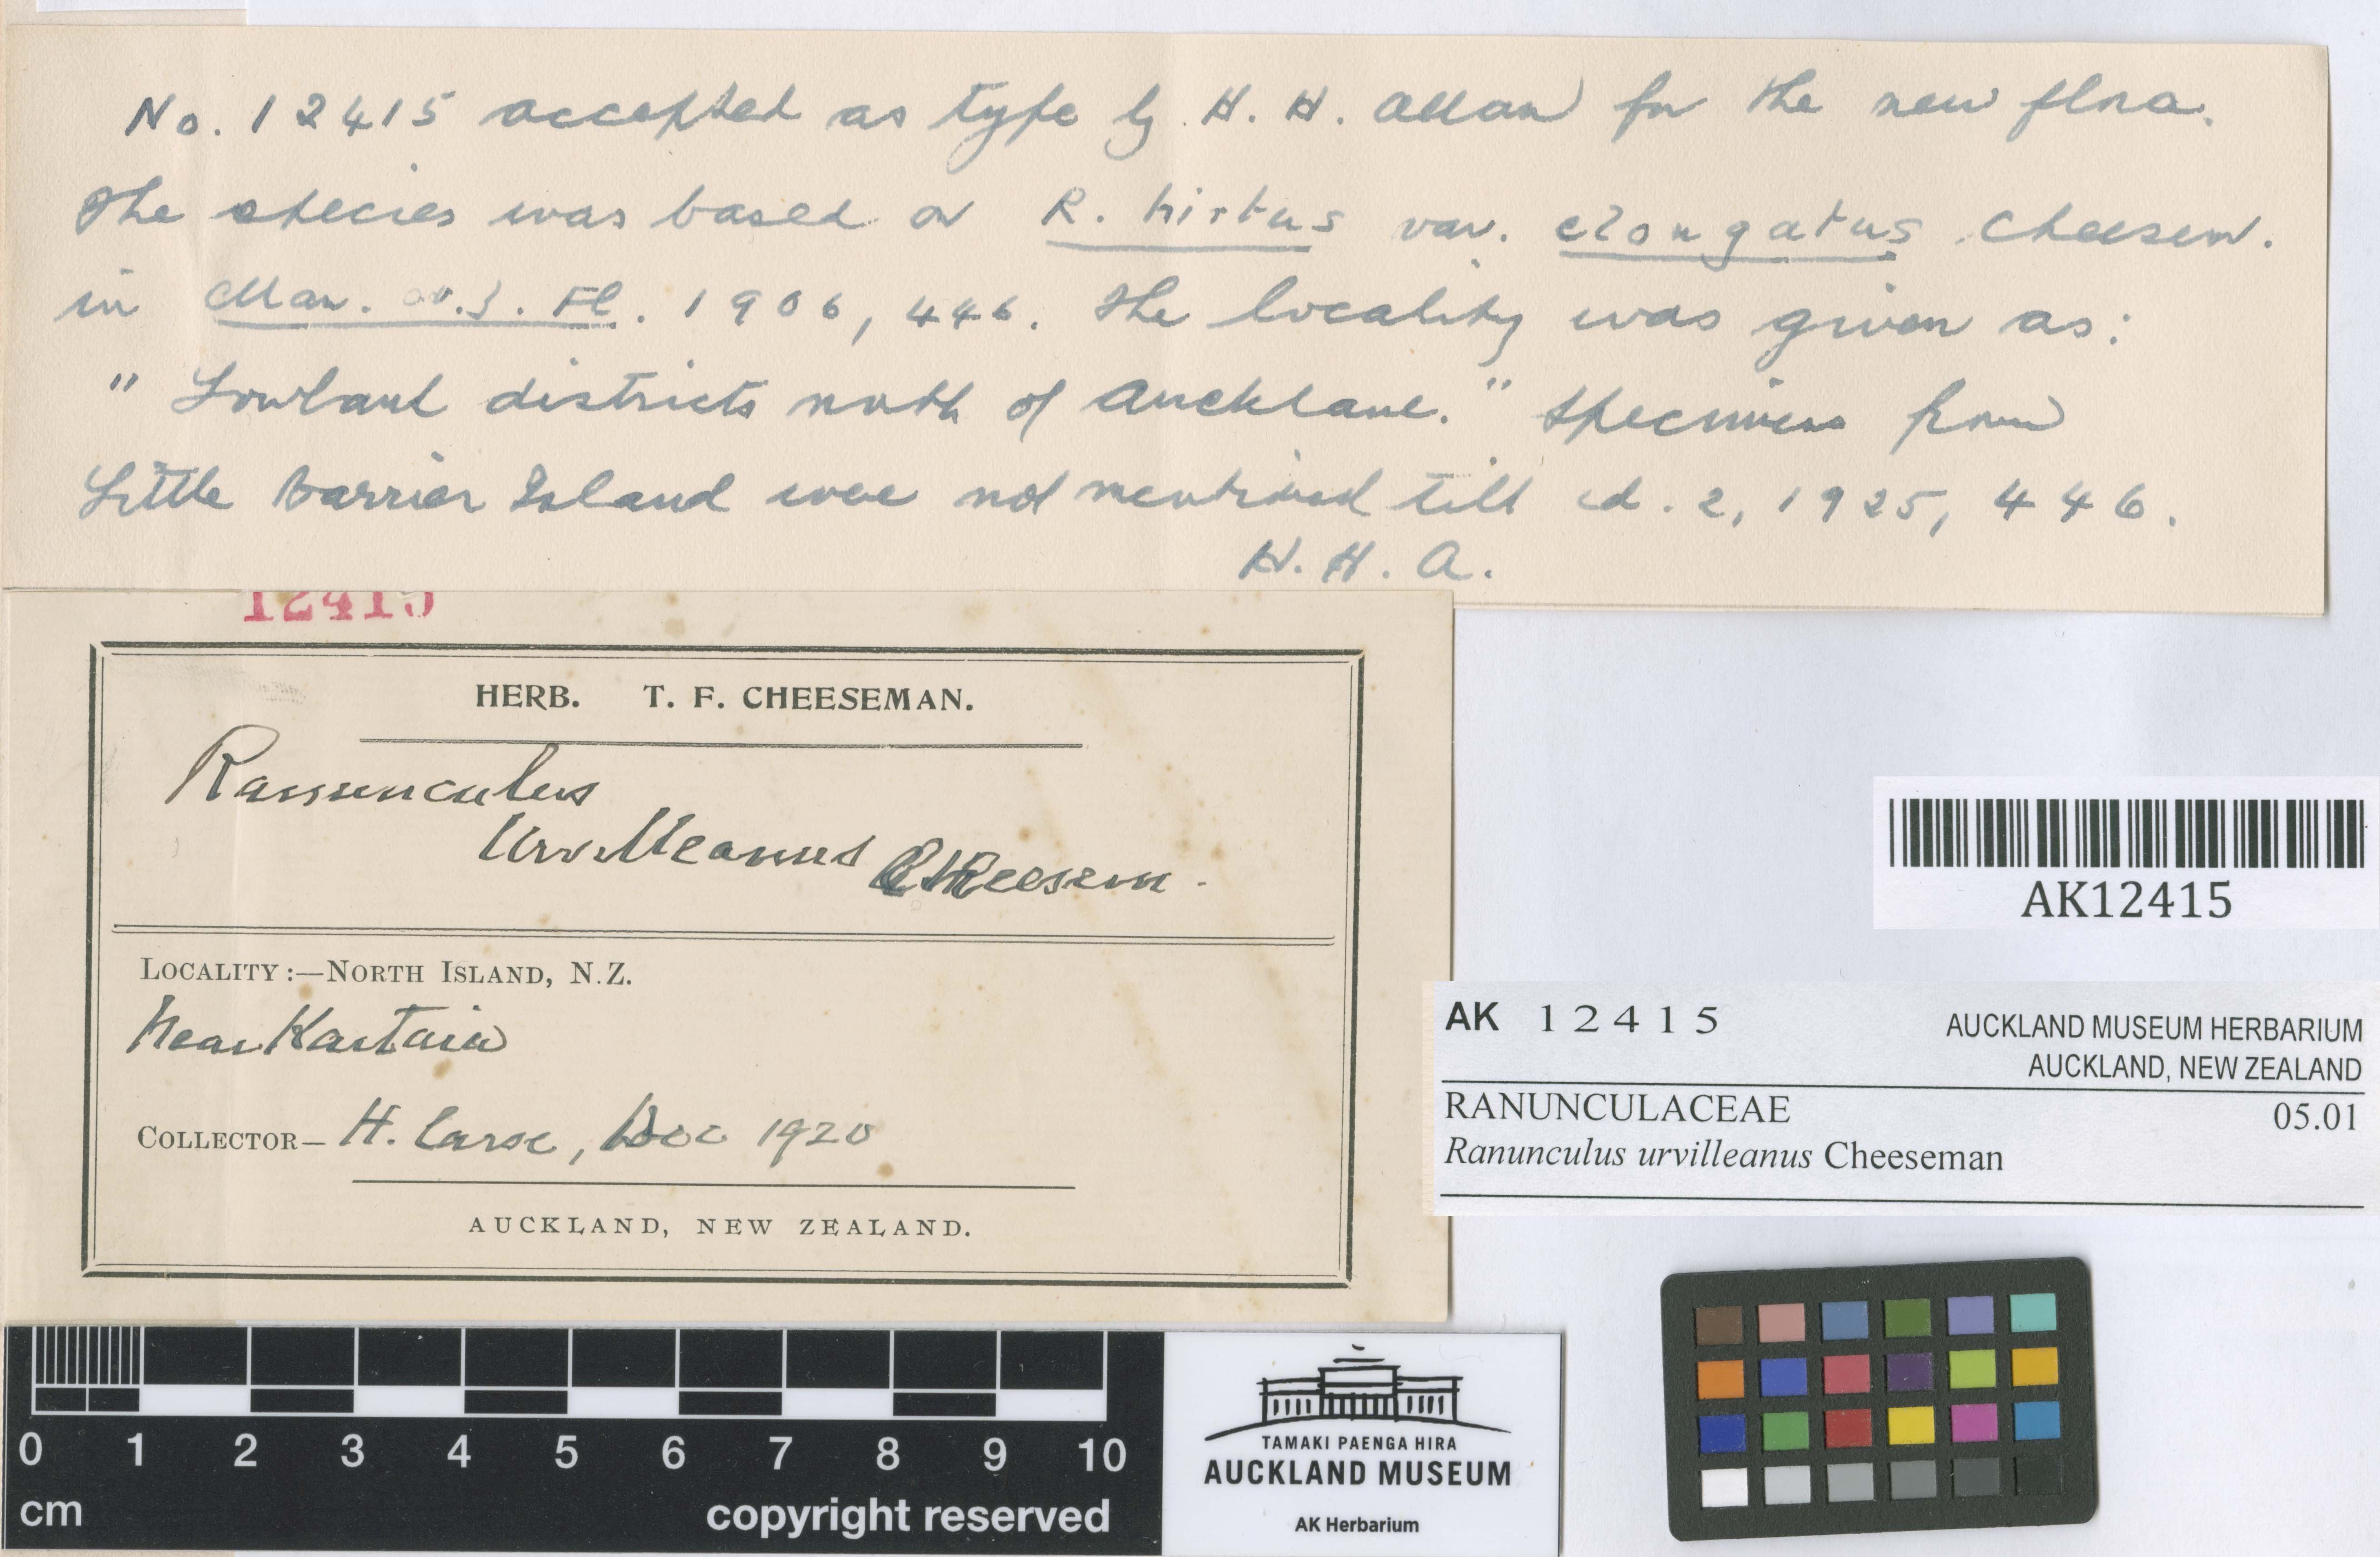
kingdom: Plantae
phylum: Tracheophyta
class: Magnoliopsida
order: Ranunculales
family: Ranunculaceae
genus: Ranunculus
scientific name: Ranunculus urvilleanus
